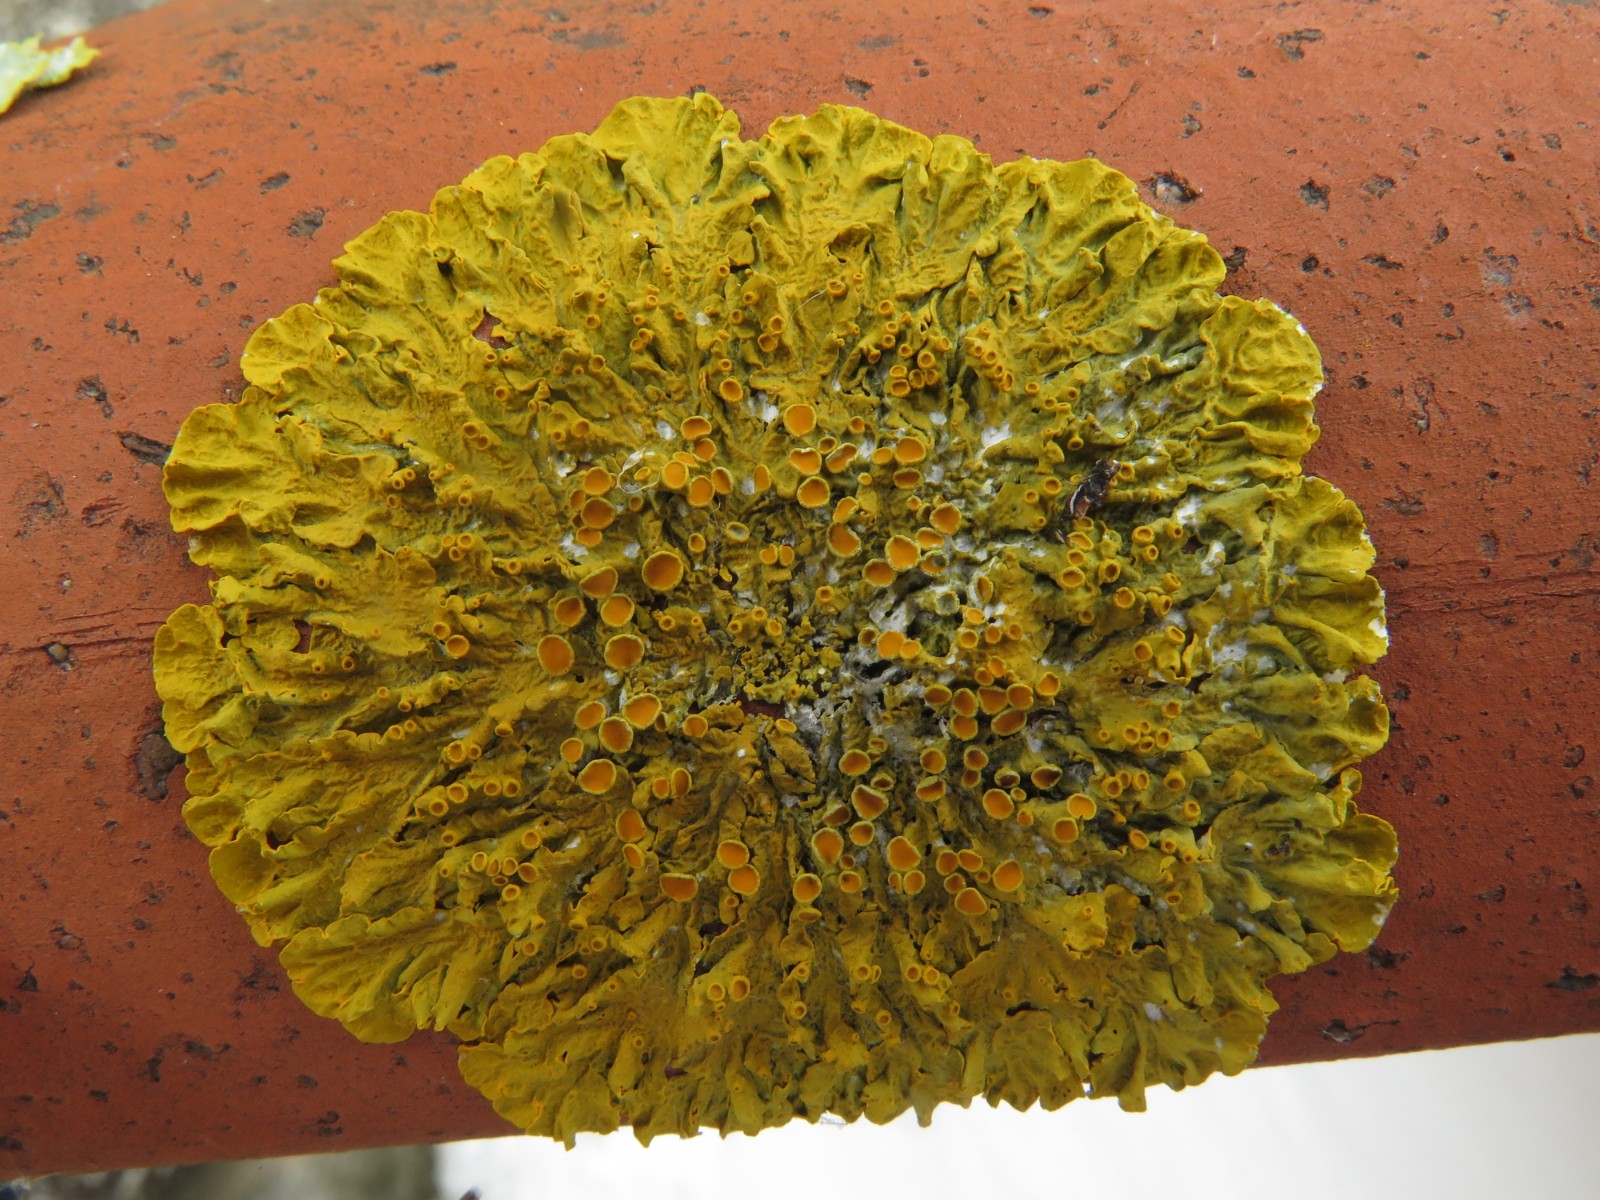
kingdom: Fungi
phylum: Ascomycota
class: Lecanoromycetes
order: Teloschistales
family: Teloschistaceae
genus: Xanthoria
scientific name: Xanthoria parietina
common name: almindelig væggelav
